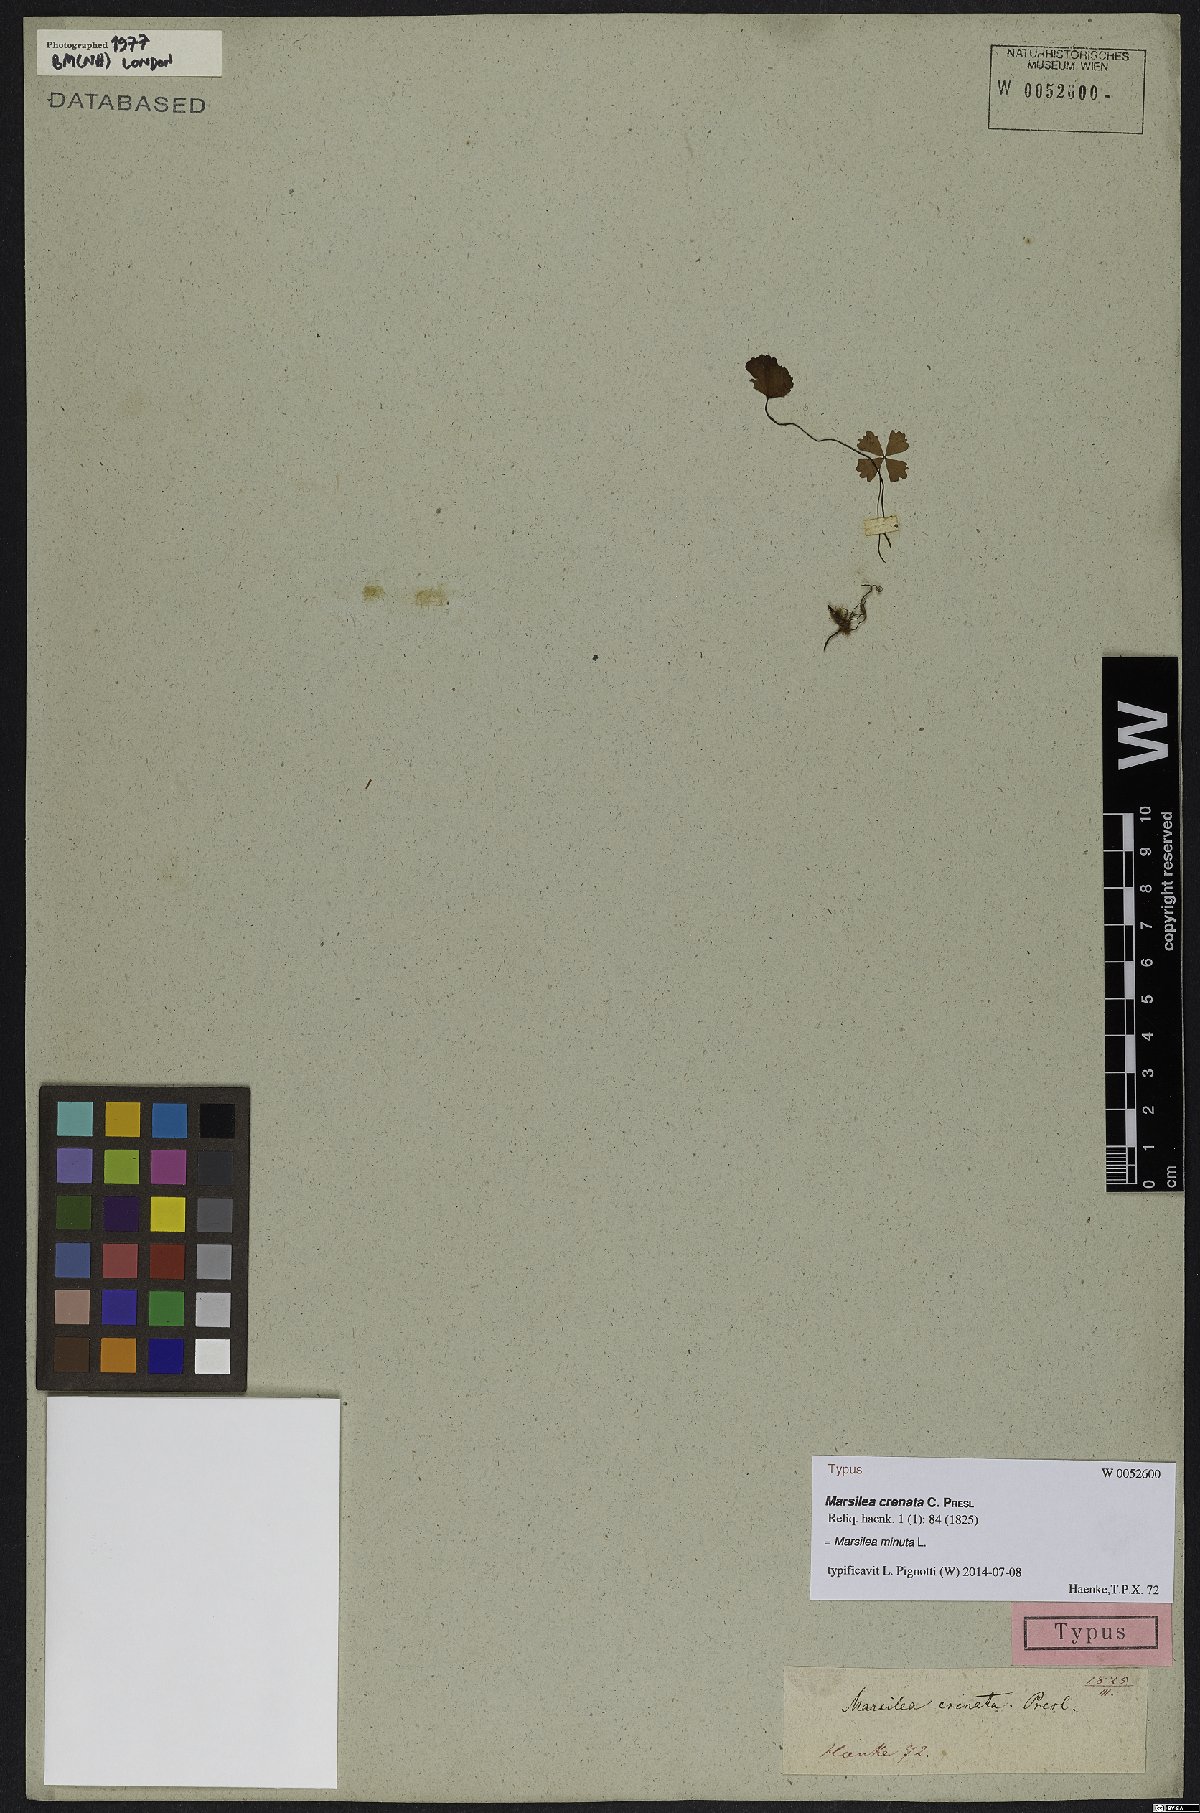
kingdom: Plantae
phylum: Tracheophyta
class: Polypodiopsida
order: Salviniales
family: Marsileaceae
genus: Marsilea
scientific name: Marsilea minuta
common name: Dwarf waterclover
